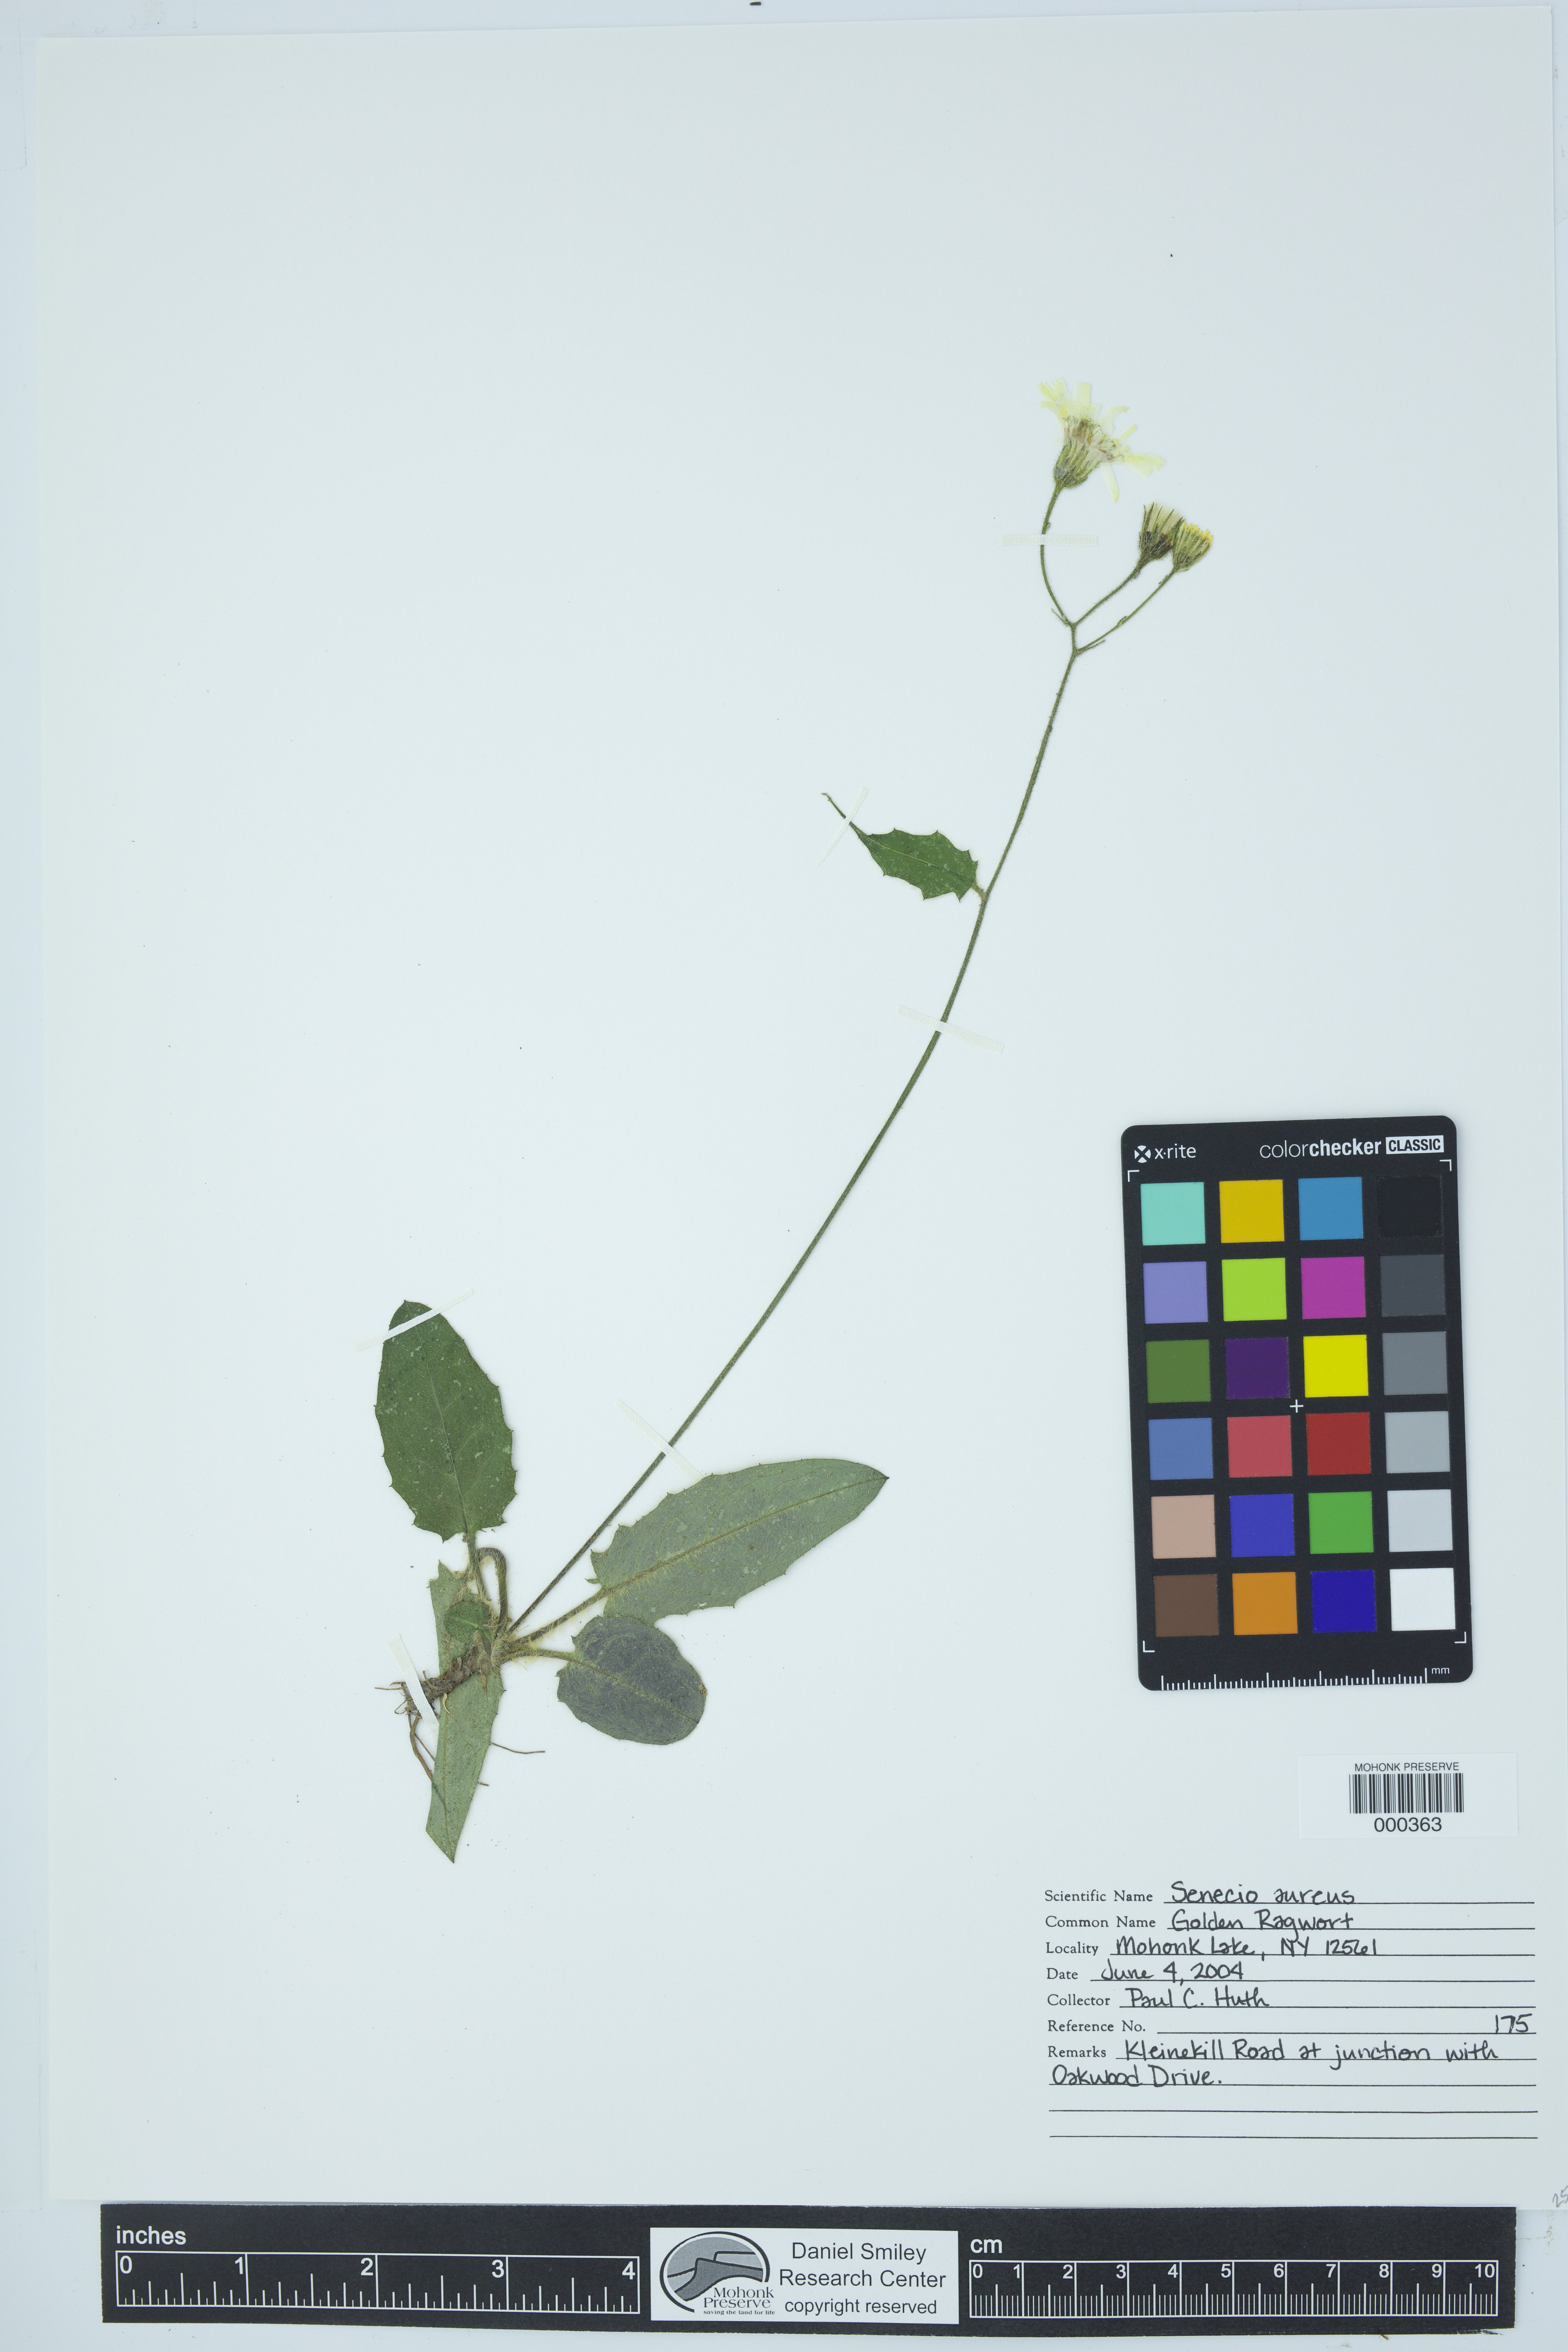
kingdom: Plantae
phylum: Tracheophyta
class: Magnoliopsida
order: Asterales
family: Asteraceae
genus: Senecio
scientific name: Senecio aureus
